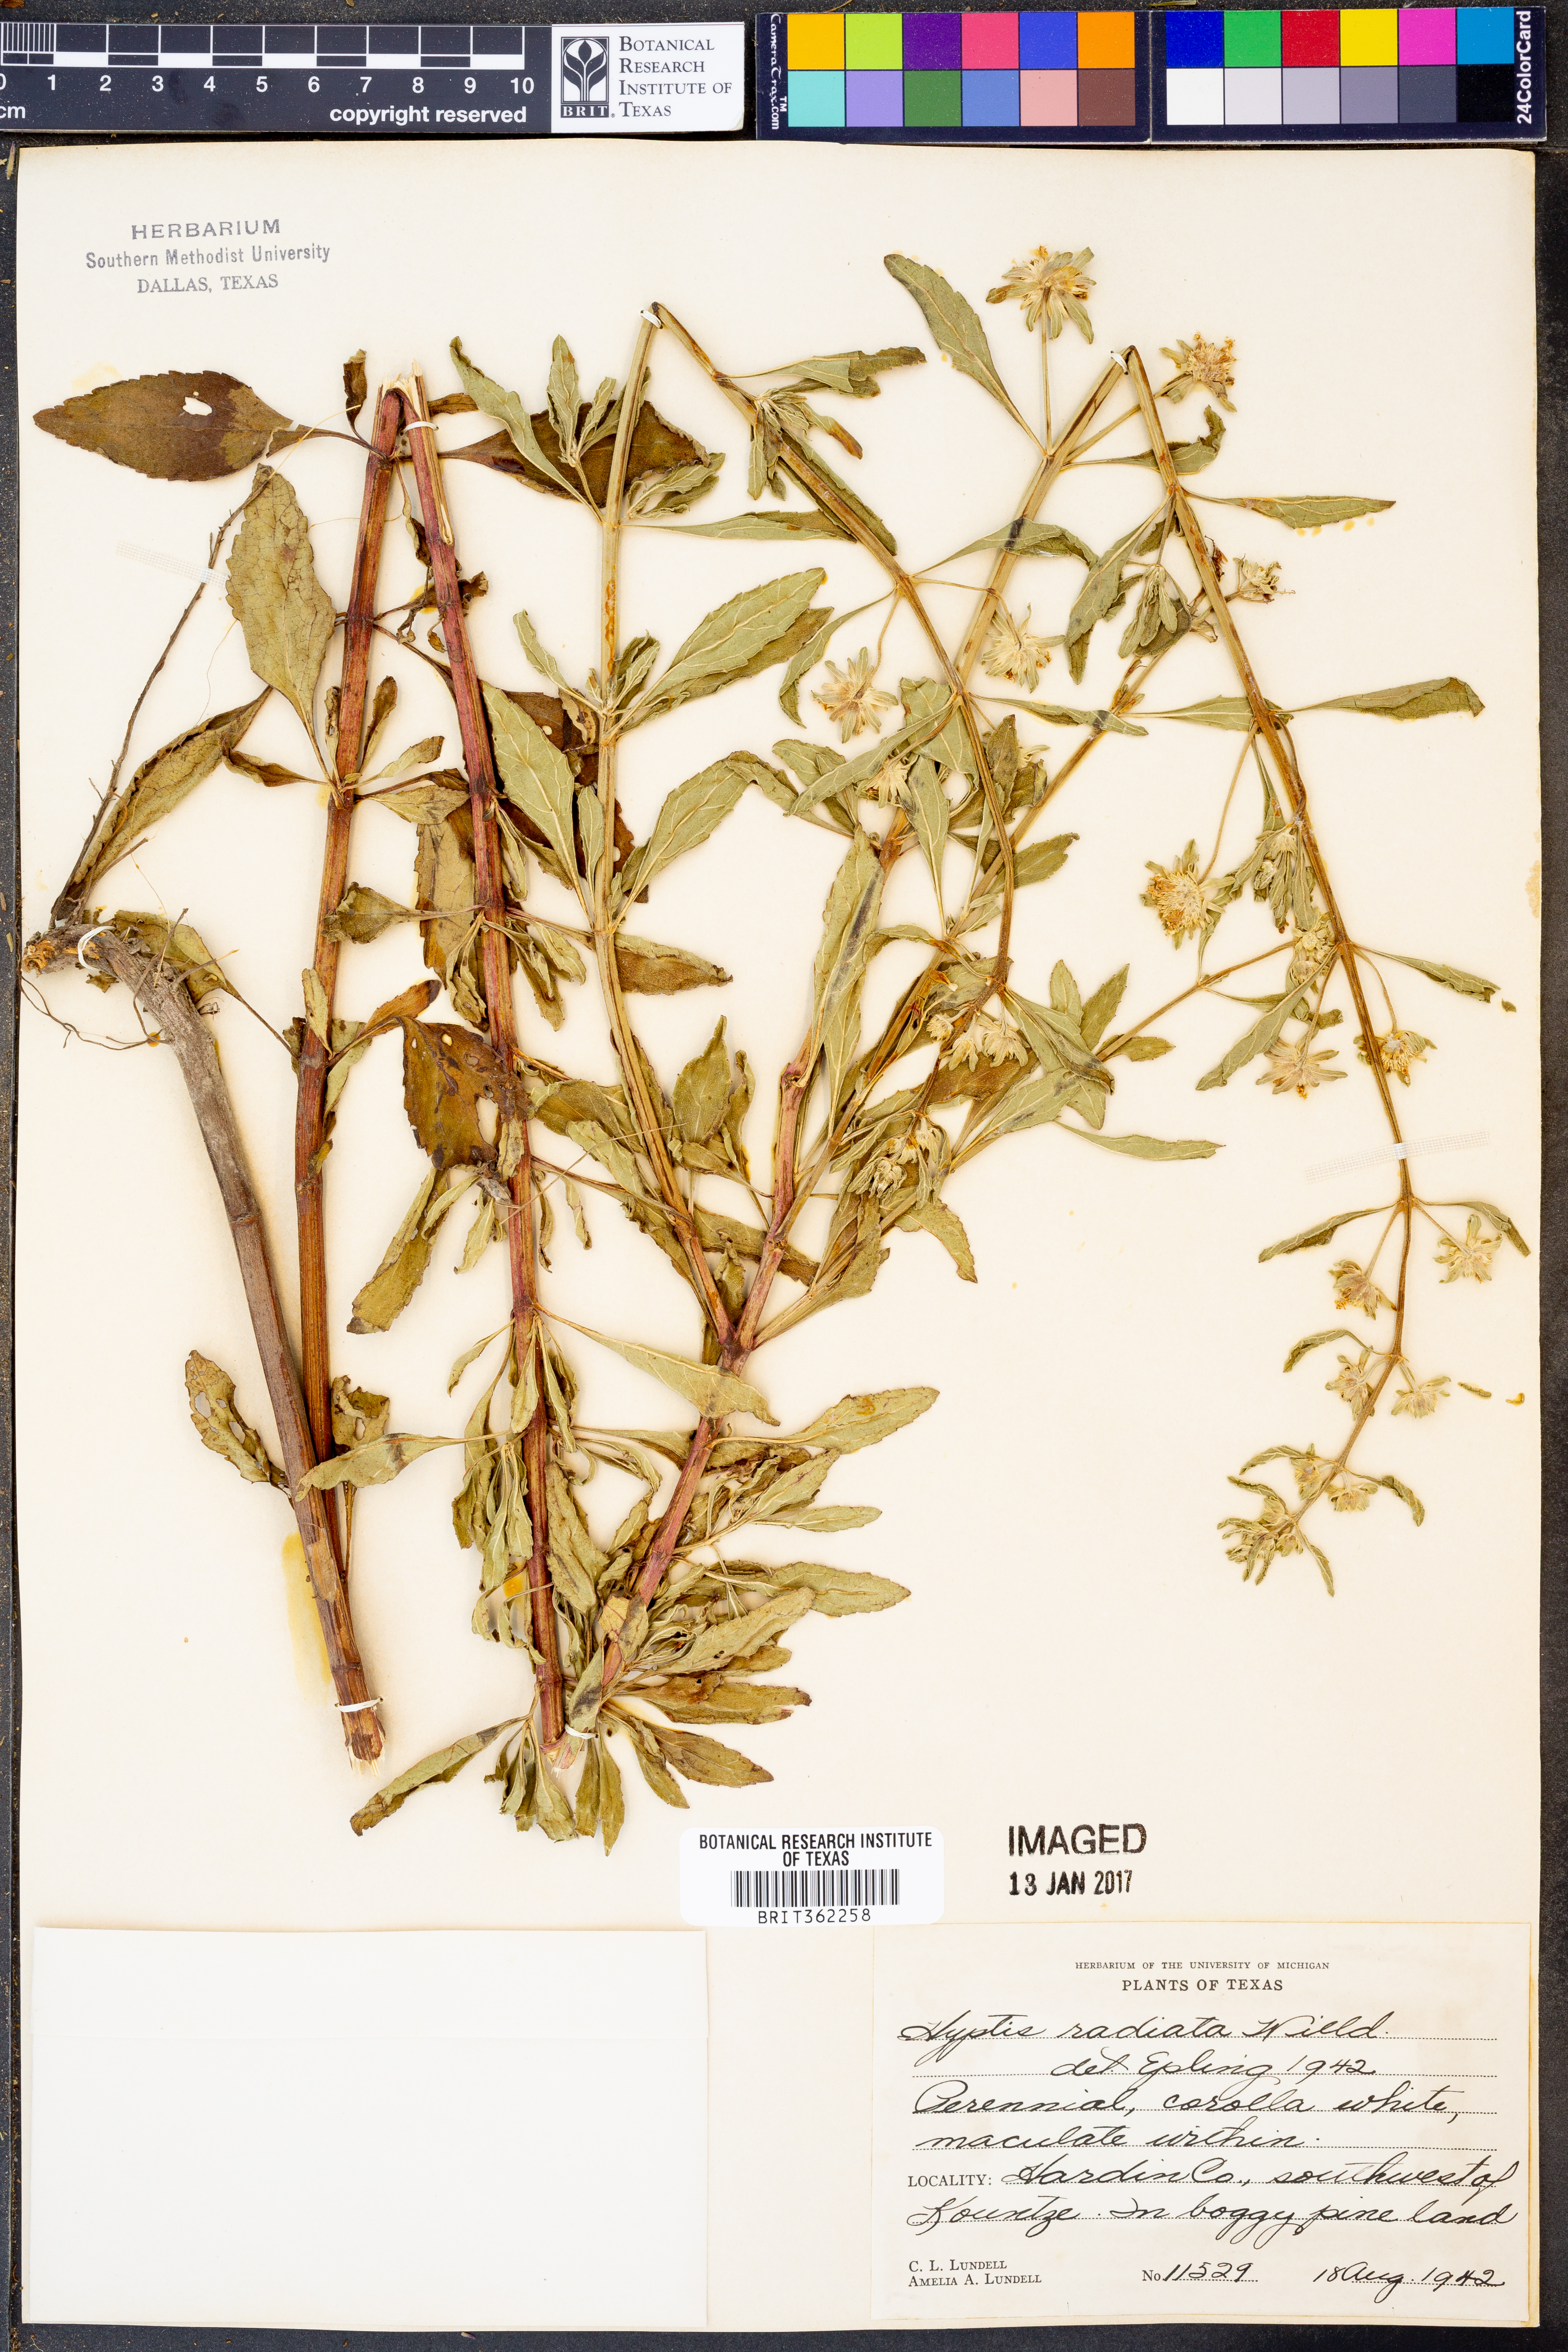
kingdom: Plantae
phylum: Tracheophyta
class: Magnoliopsida
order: Lamiales
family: Lamiaceae
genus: Hyptis
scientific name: Hyptis alata
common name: Cluster bush-mint
